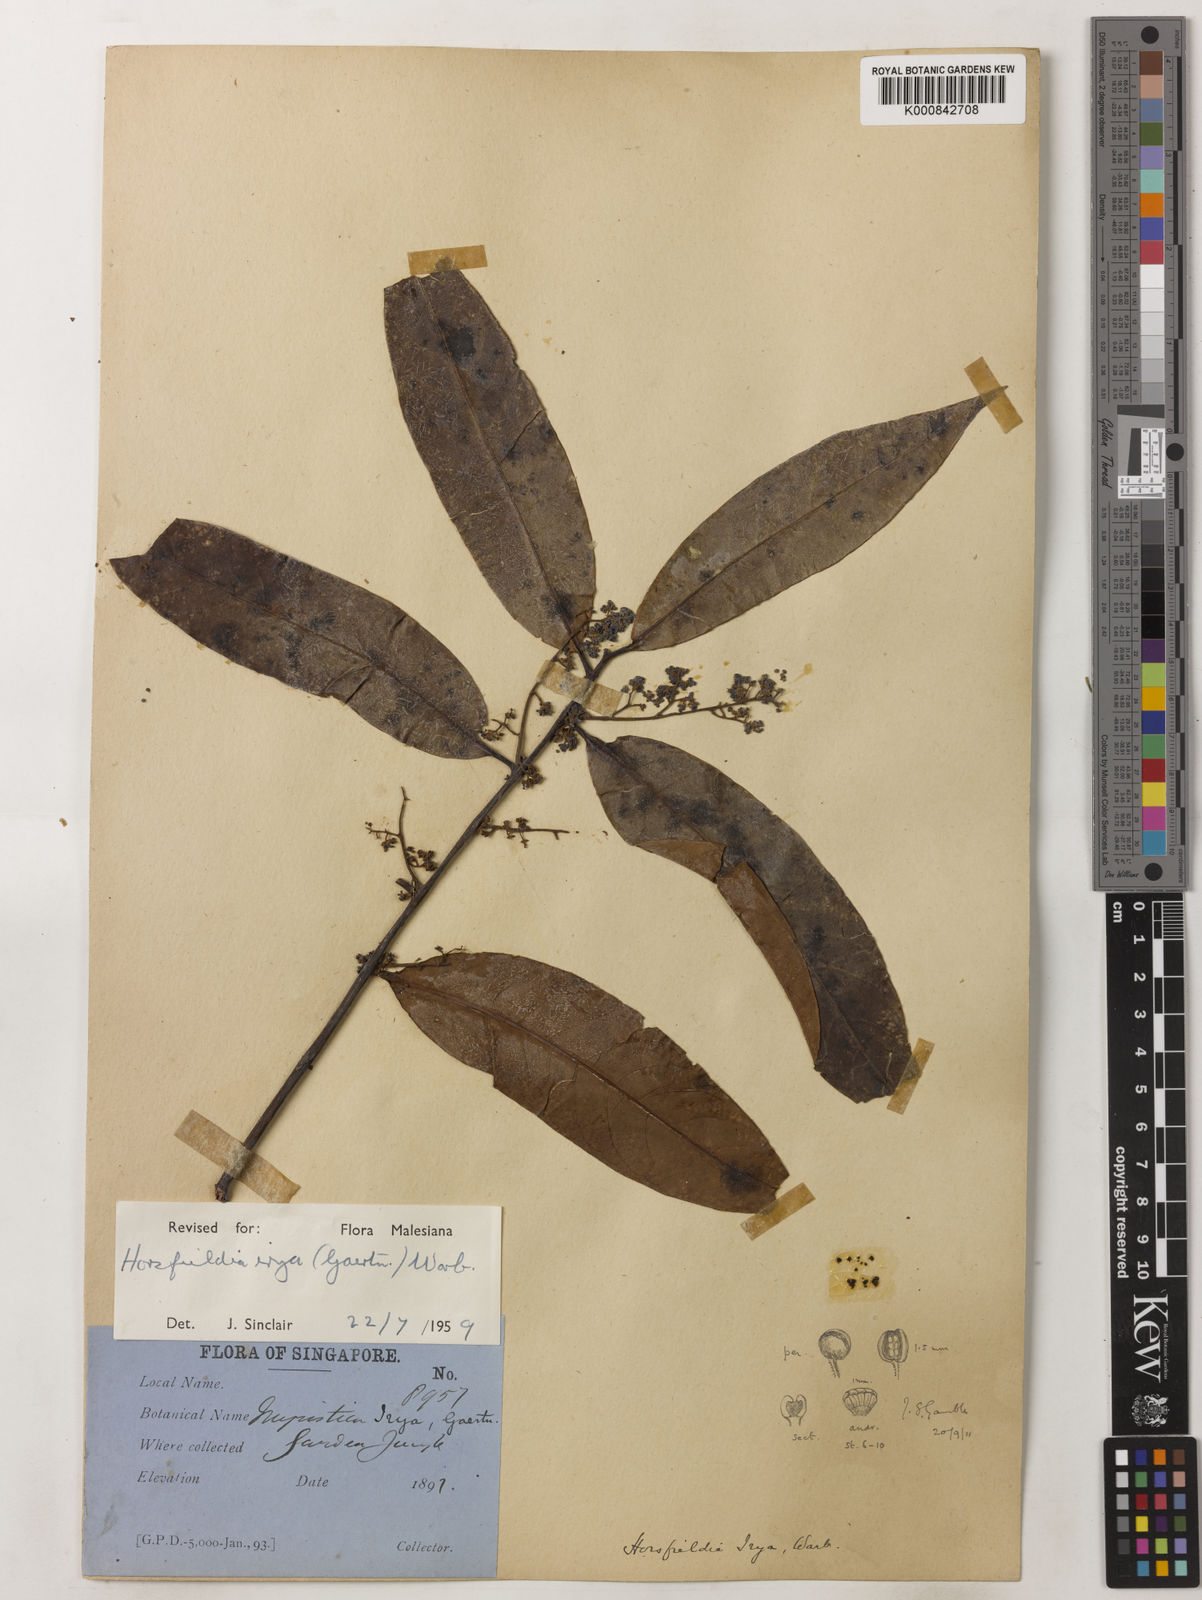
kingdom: Plantae
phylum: Tracheophyta
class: Magnoliopsida
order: Magnoliales
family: Myristicaceae
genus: Horsfieldia
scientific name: Horsfieldia irya
